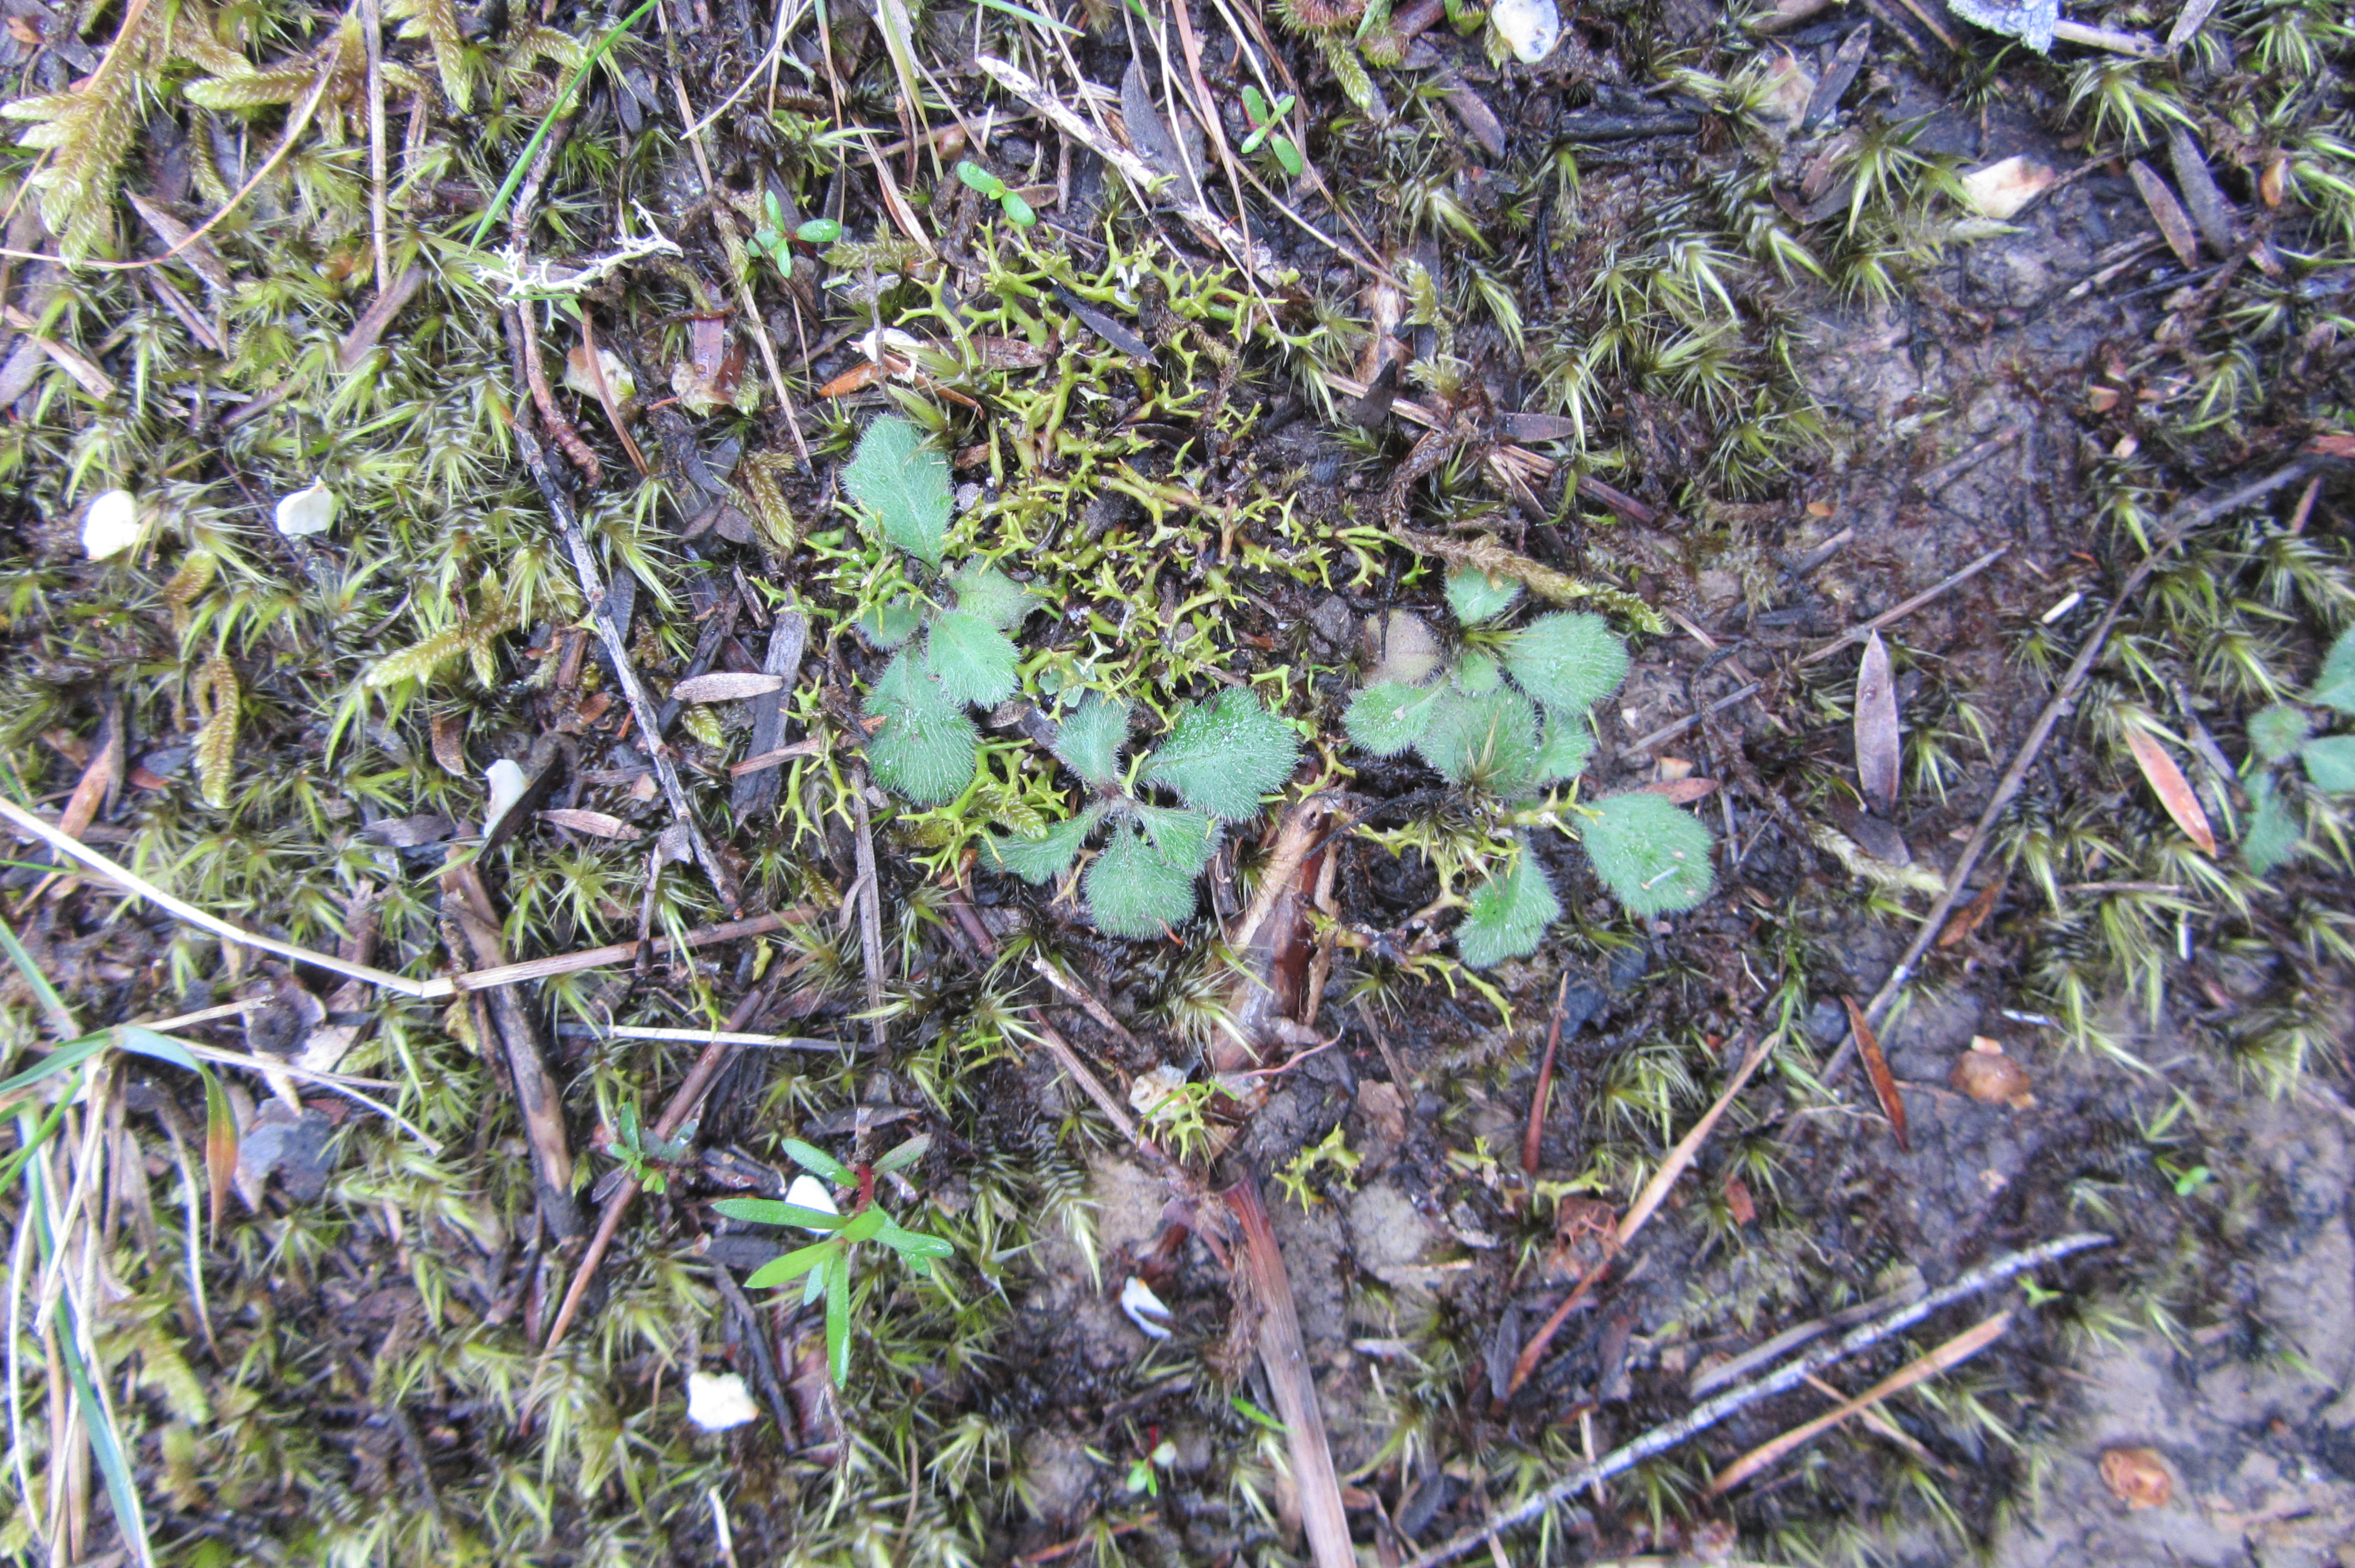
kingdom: Plantae
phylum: Tracheophyta
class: Magnoliopsida
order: Asterales
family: Asteraceae
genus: Lagenophora
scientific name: Lagenophora sublyrata ter
